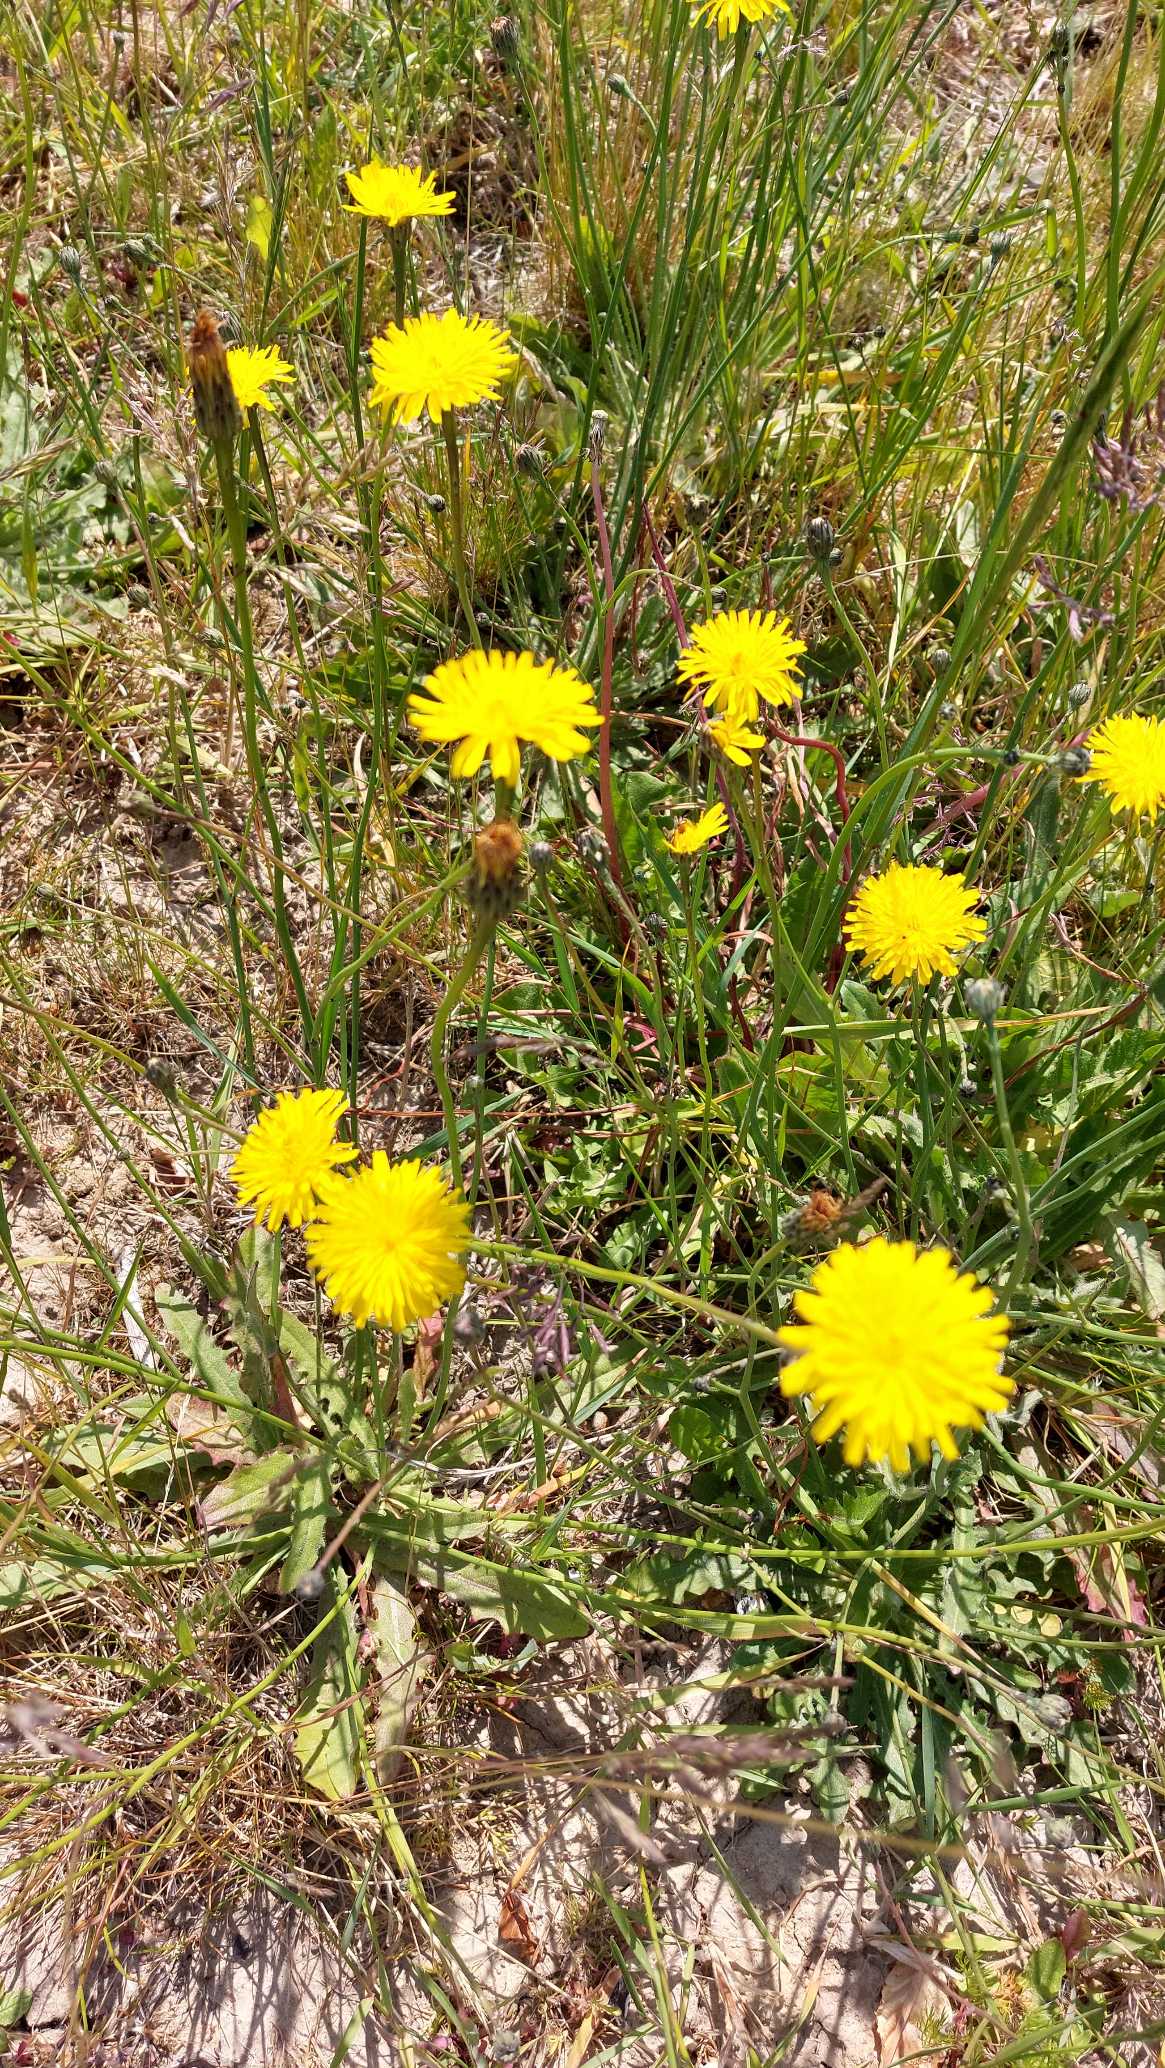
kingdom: Plantae
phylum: Tracheophyta
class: Magnoliopsida
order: Asterales
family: Asteraceae
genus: Hypochaeris
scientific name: Hypochaeris radicata
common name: Almindelig kongepen
